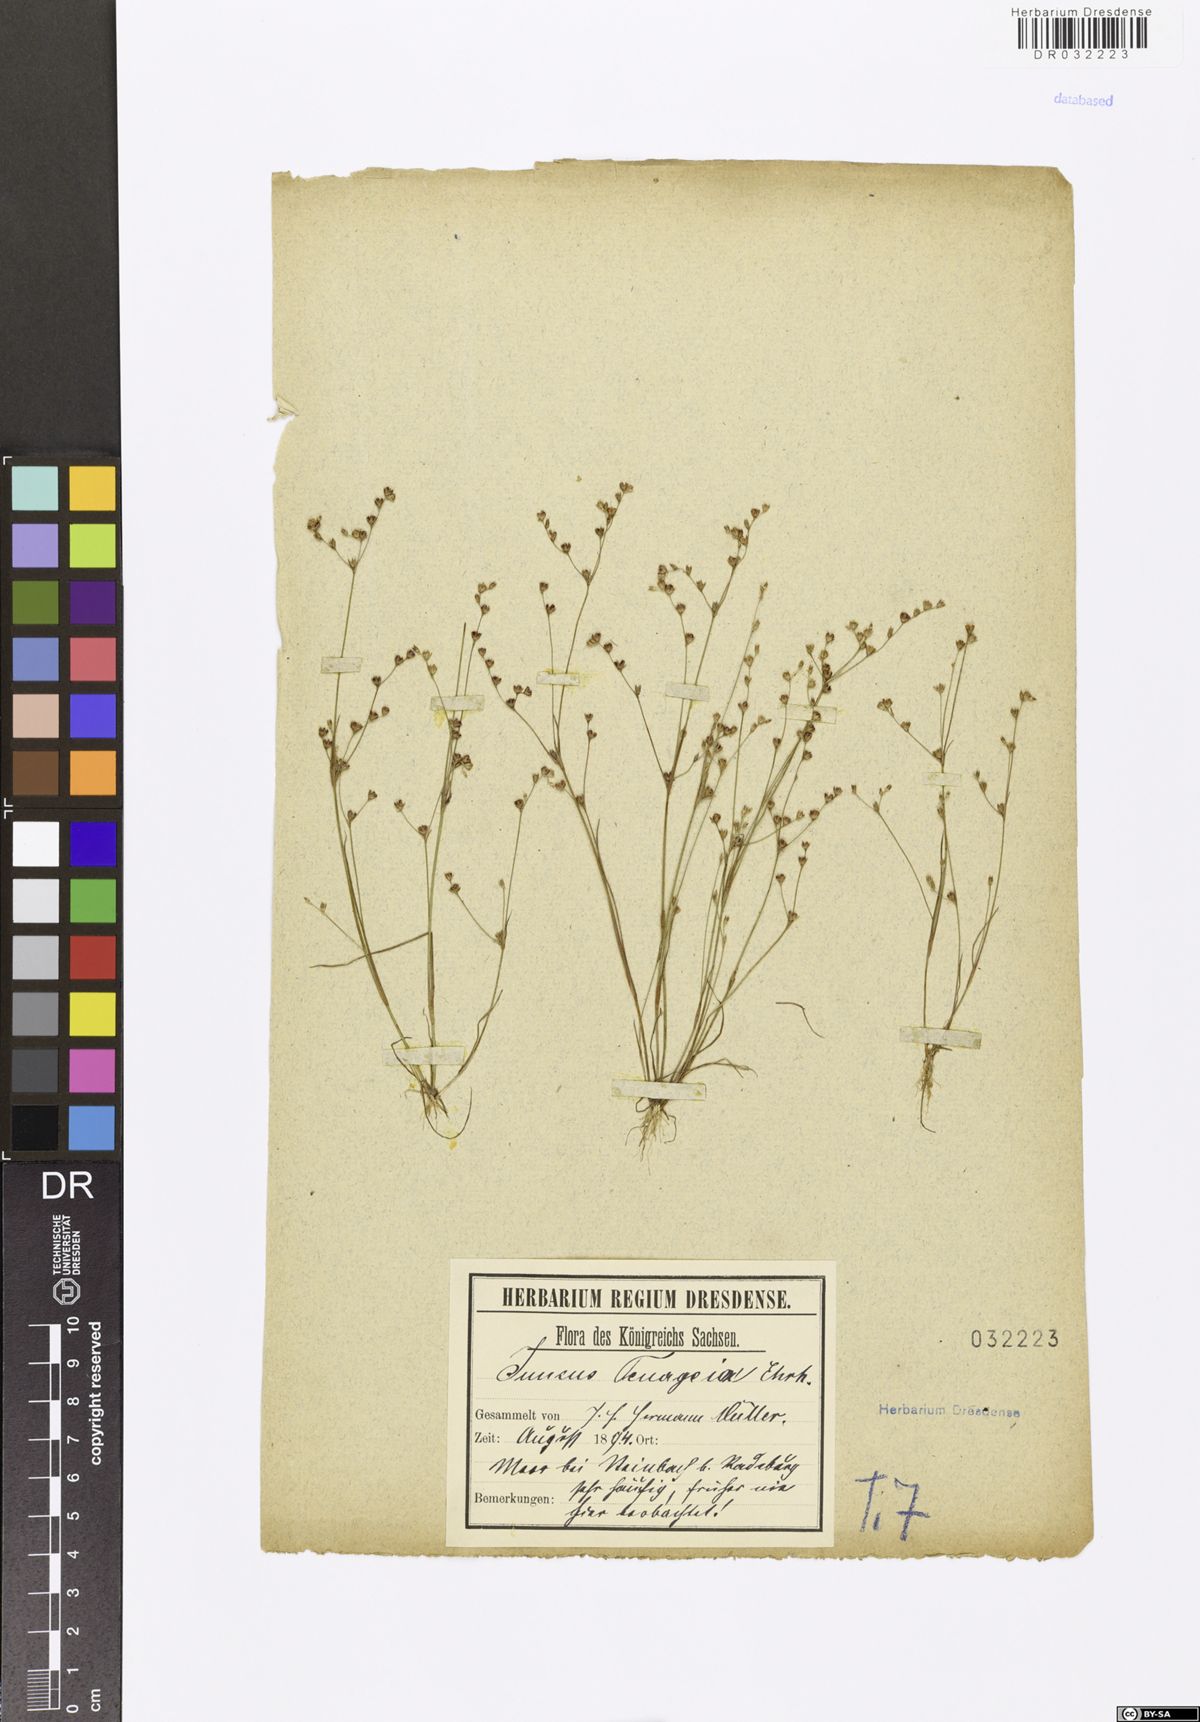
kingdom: Plantae
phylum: Tracheophyta
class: Liliopsida
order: Poales
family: Juncaceae
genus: Juncus
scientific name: Juncus tenageia
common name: Sand rush
